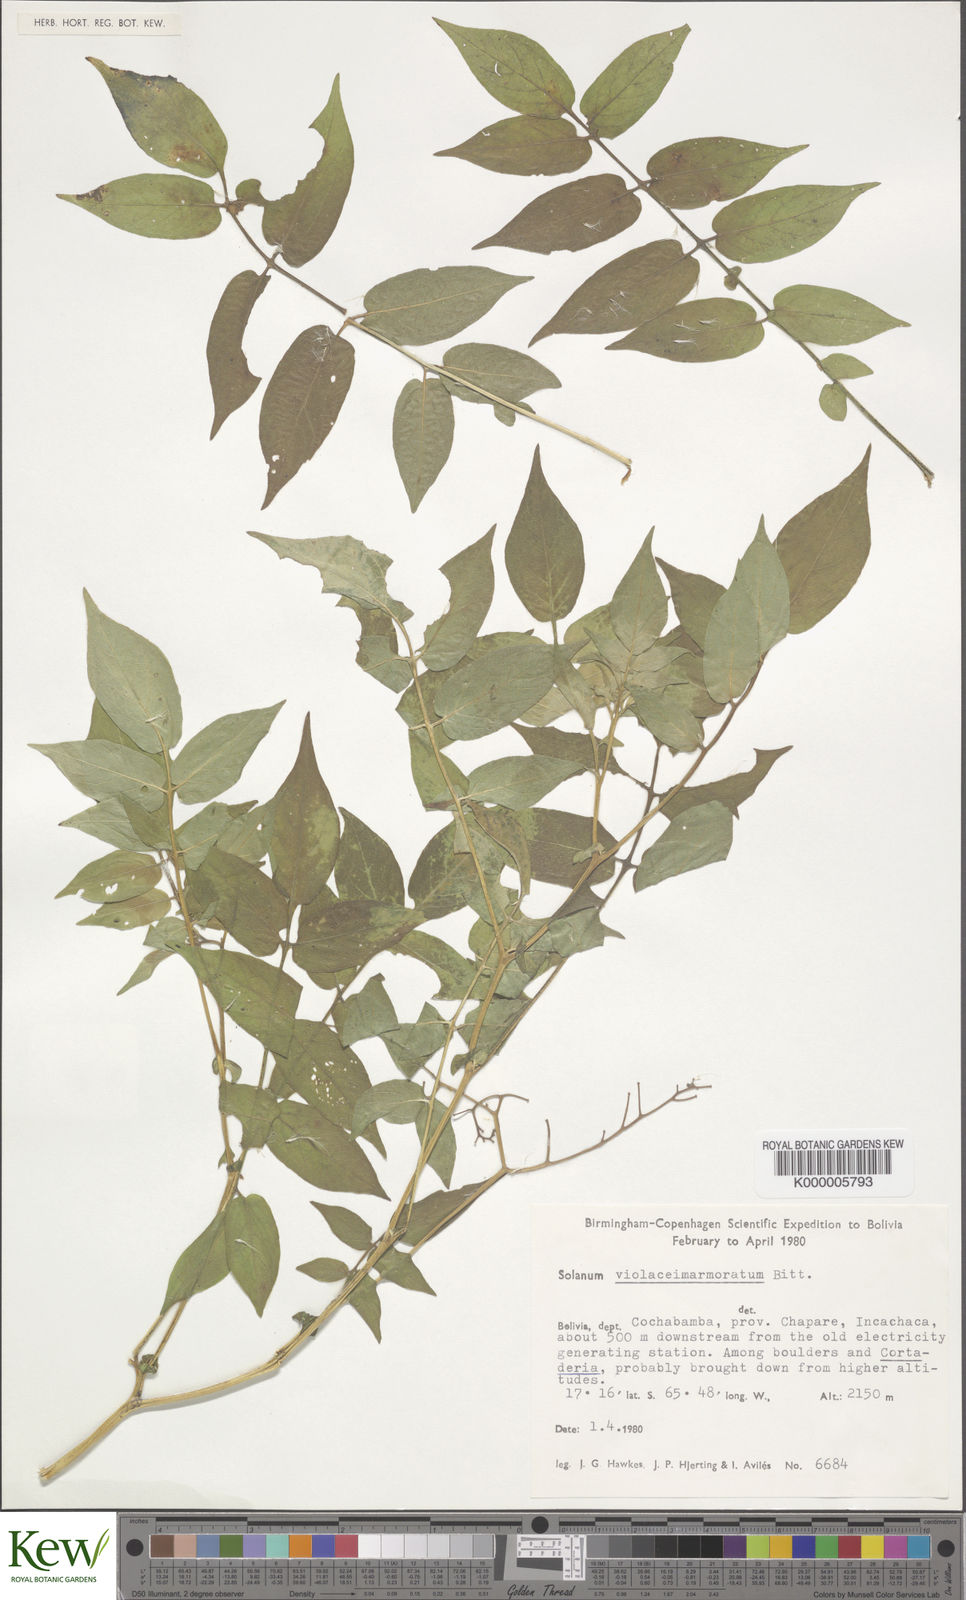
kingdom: Plantae
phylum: Tracheophyta
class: Magnoliopsida
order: Solanales
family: Solanaceae
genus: Solanum
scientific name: Solanum violaceimarmoratum
